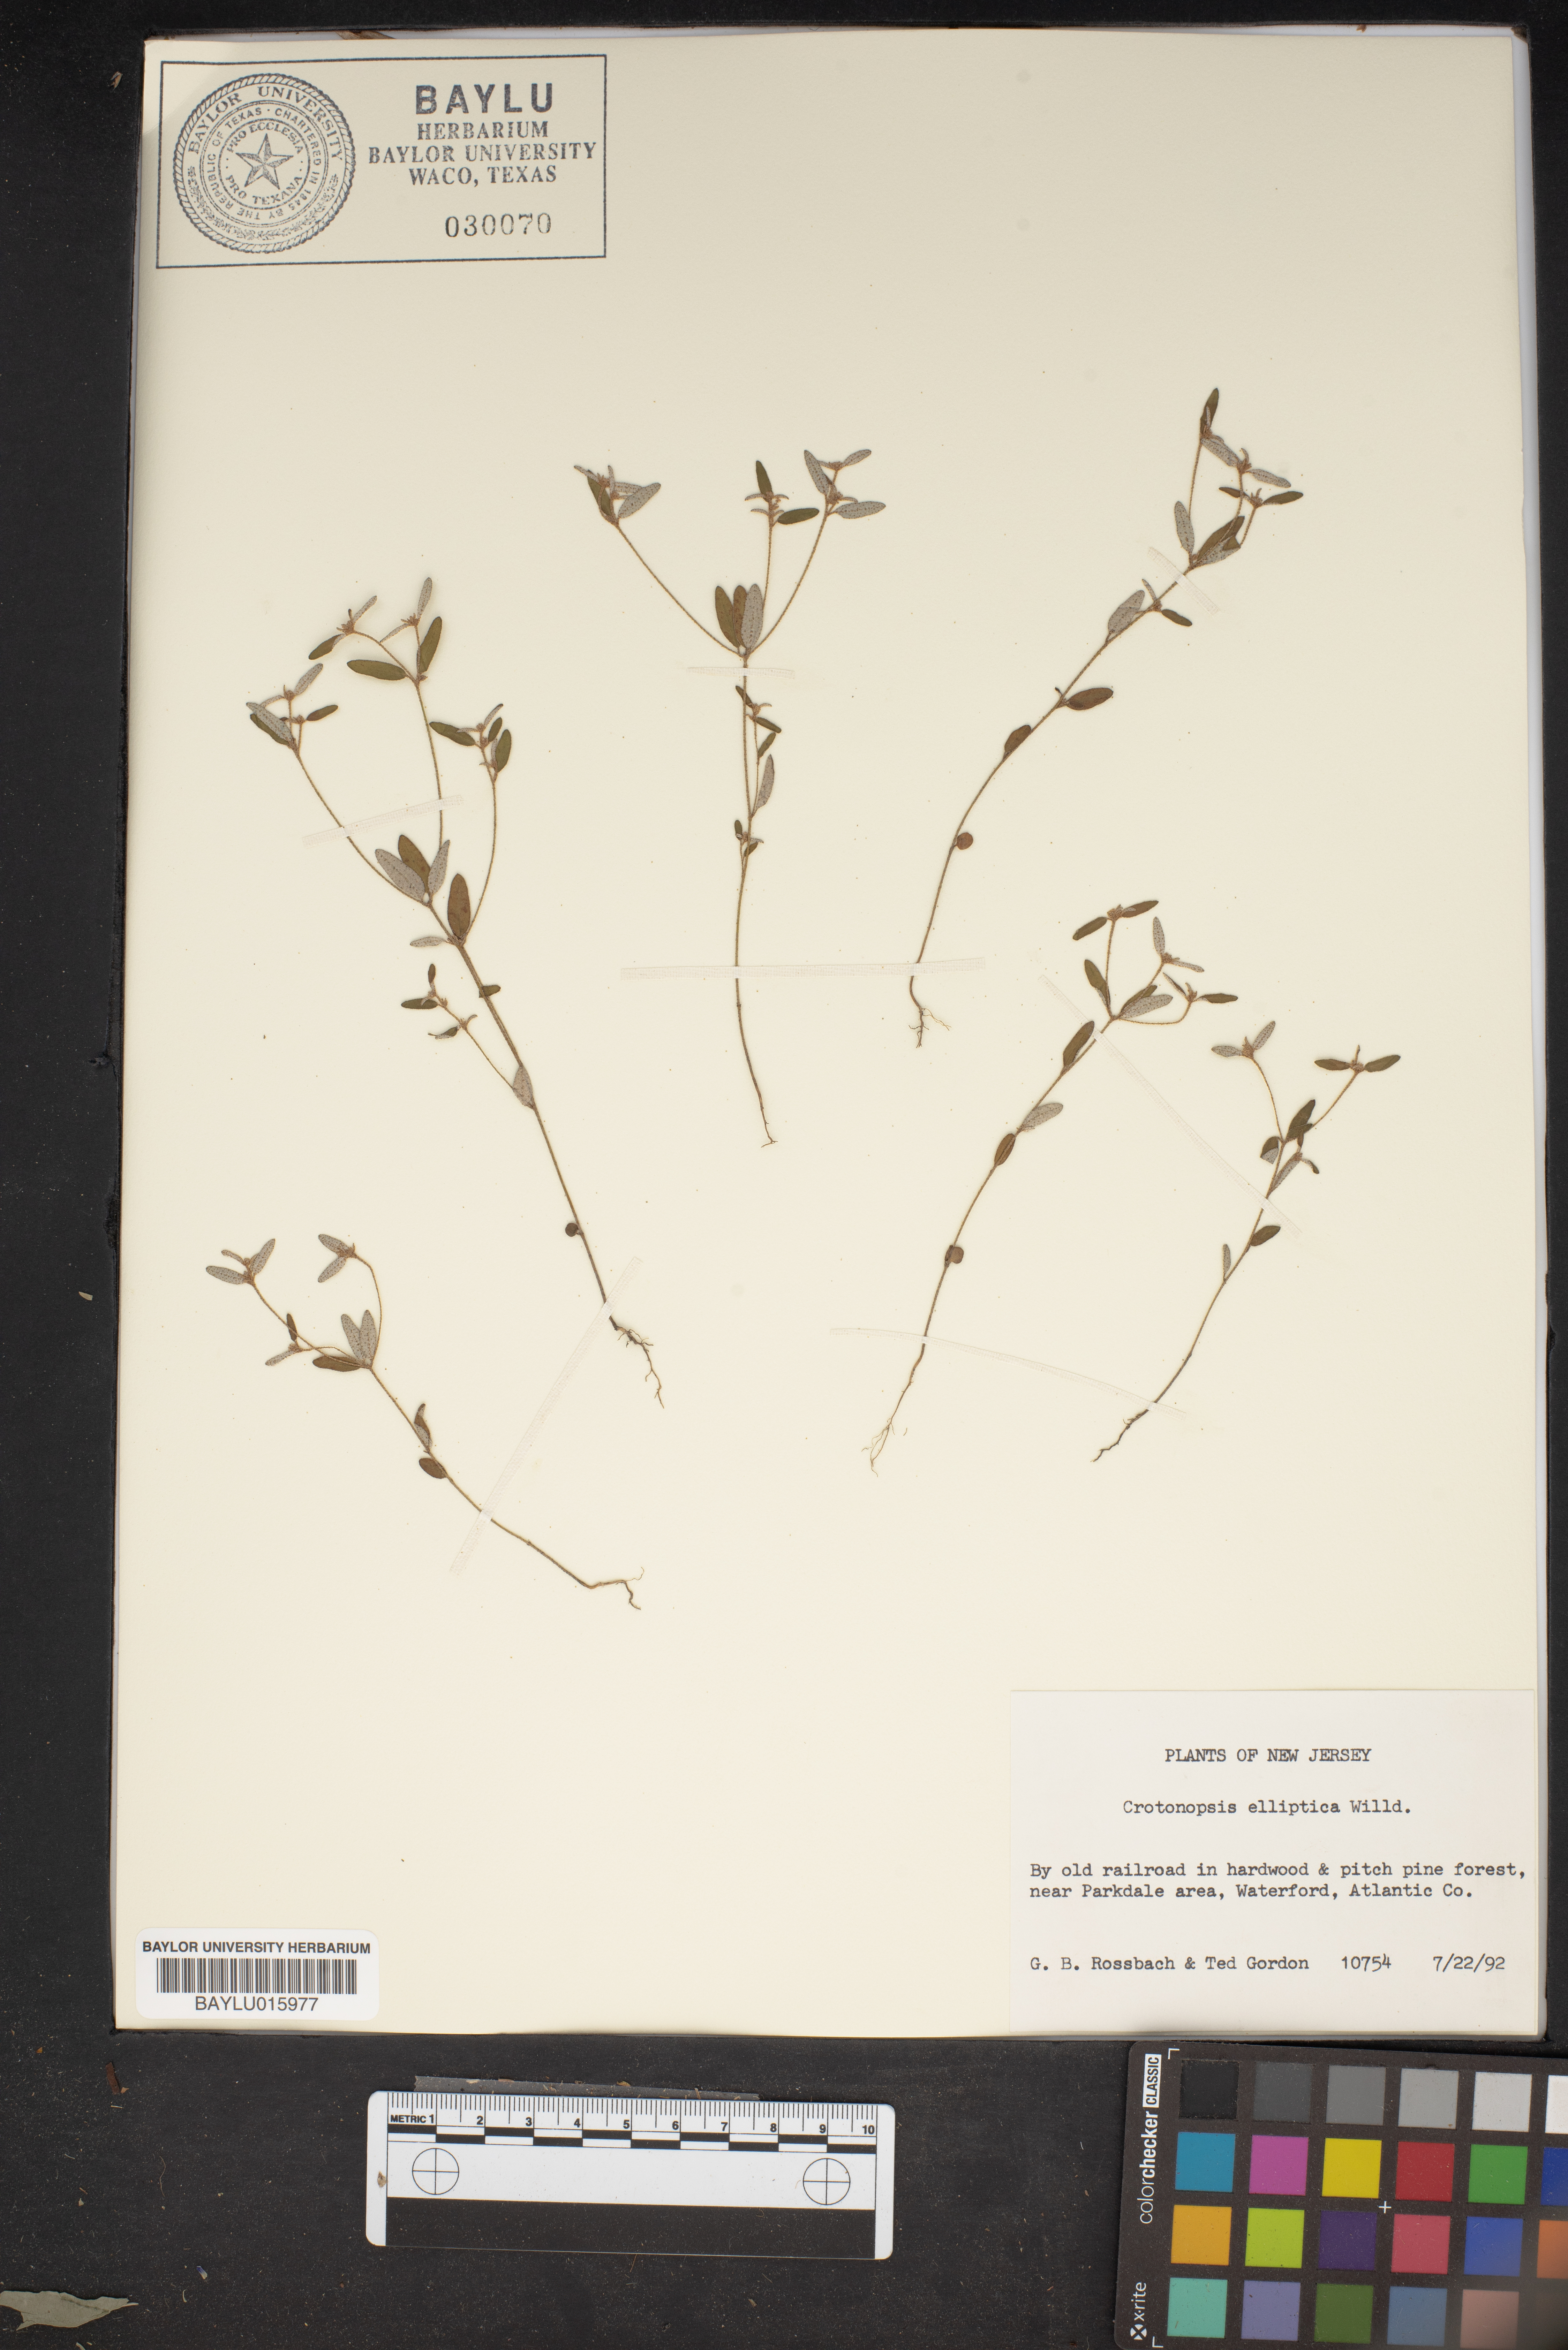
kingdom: Plantae
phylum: Tracheophyta
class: Magnoliopsida
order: Malpighiales
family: Euphorbiaceae
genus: Croton
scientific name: Croton michauxii
